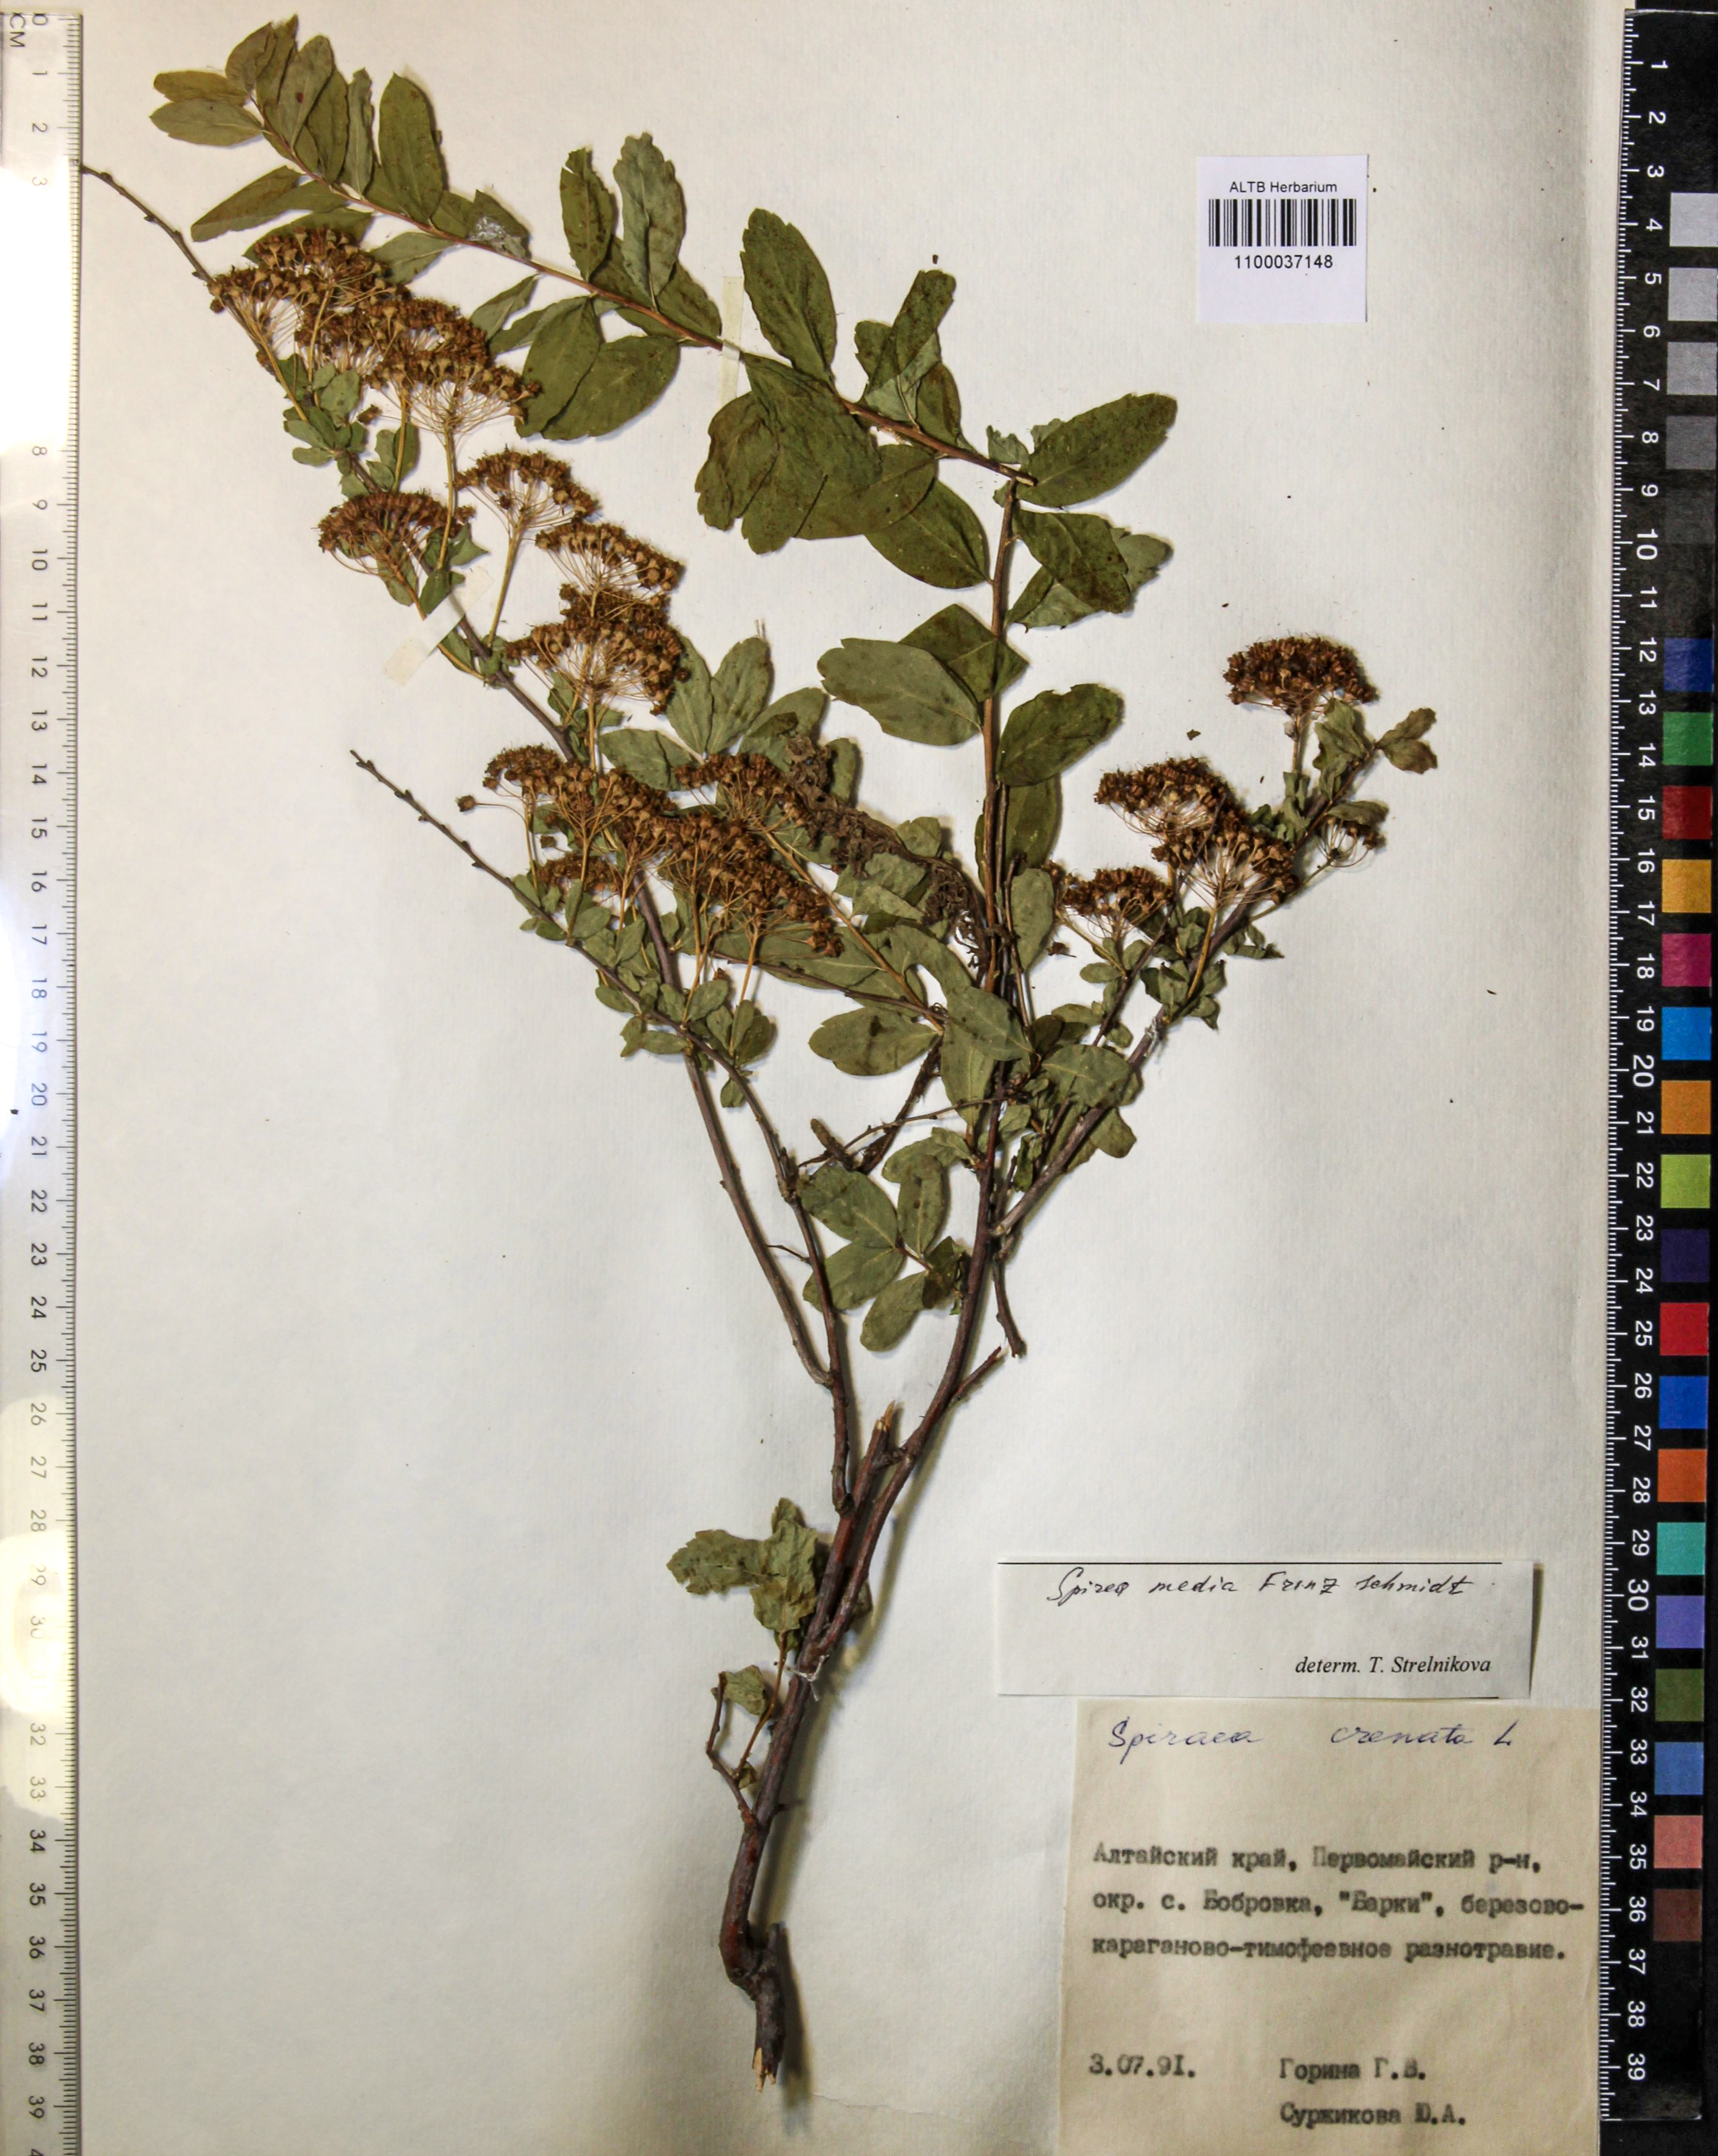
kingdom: Plantae
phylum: Tracheophyta
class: Magnoliopsida
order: Rosales
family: Rosaceae
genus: Spiraea
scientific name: Spiraea media
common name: Russian spiraea
